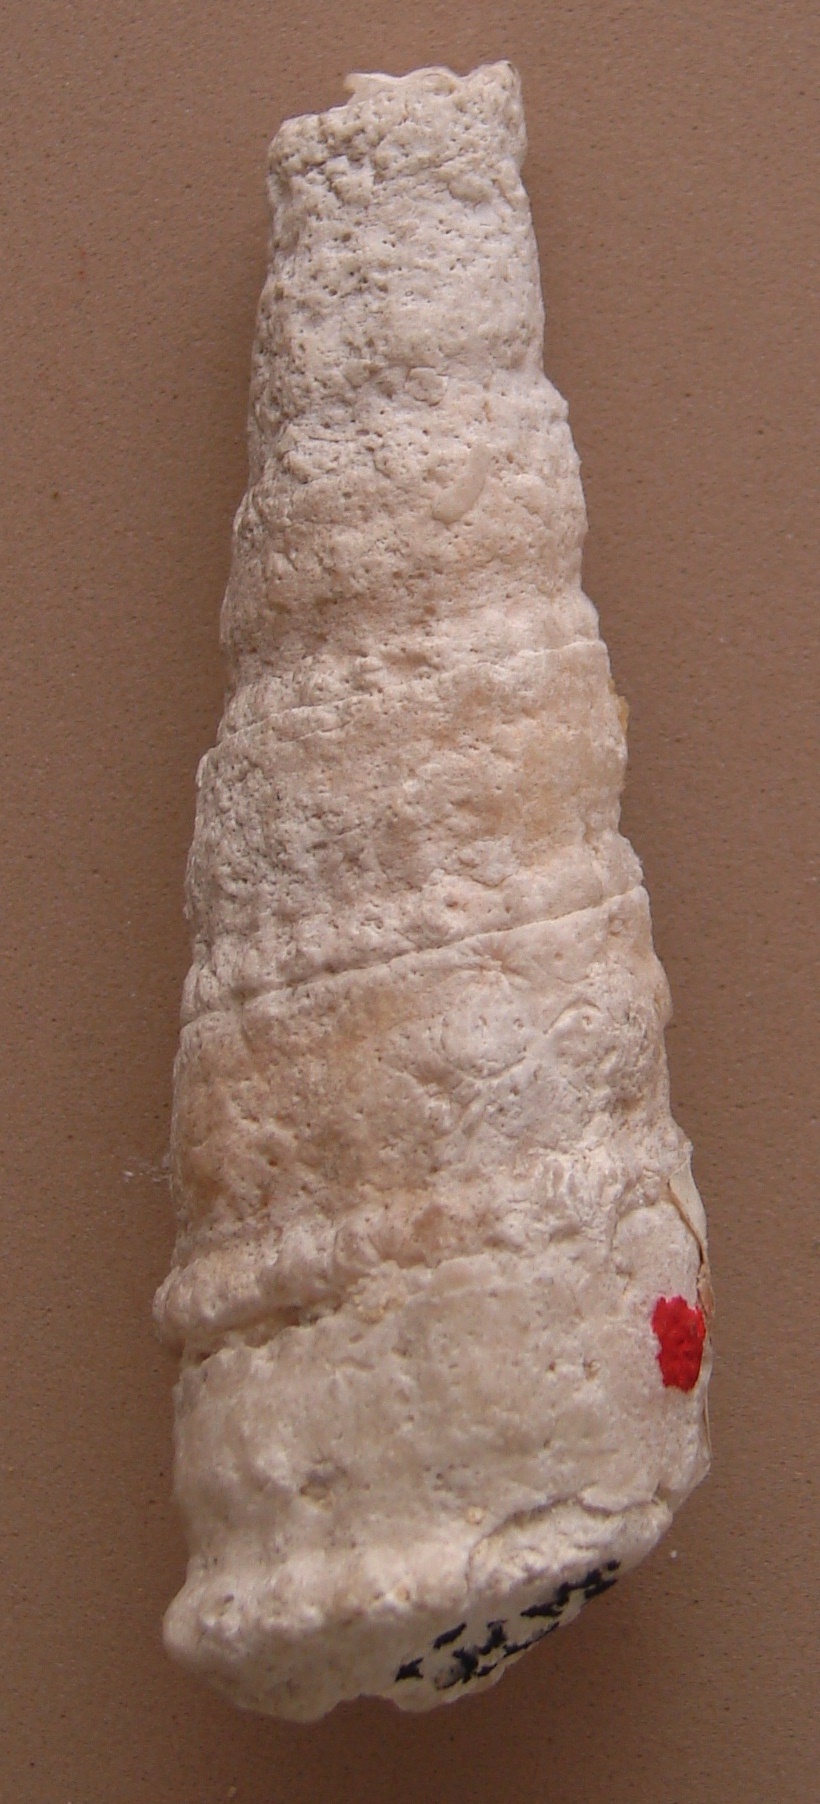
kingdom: Animalia
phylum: Mollusca
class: Gastropoda
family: Nerineidae
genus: Nerinea
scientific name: Nerinea
